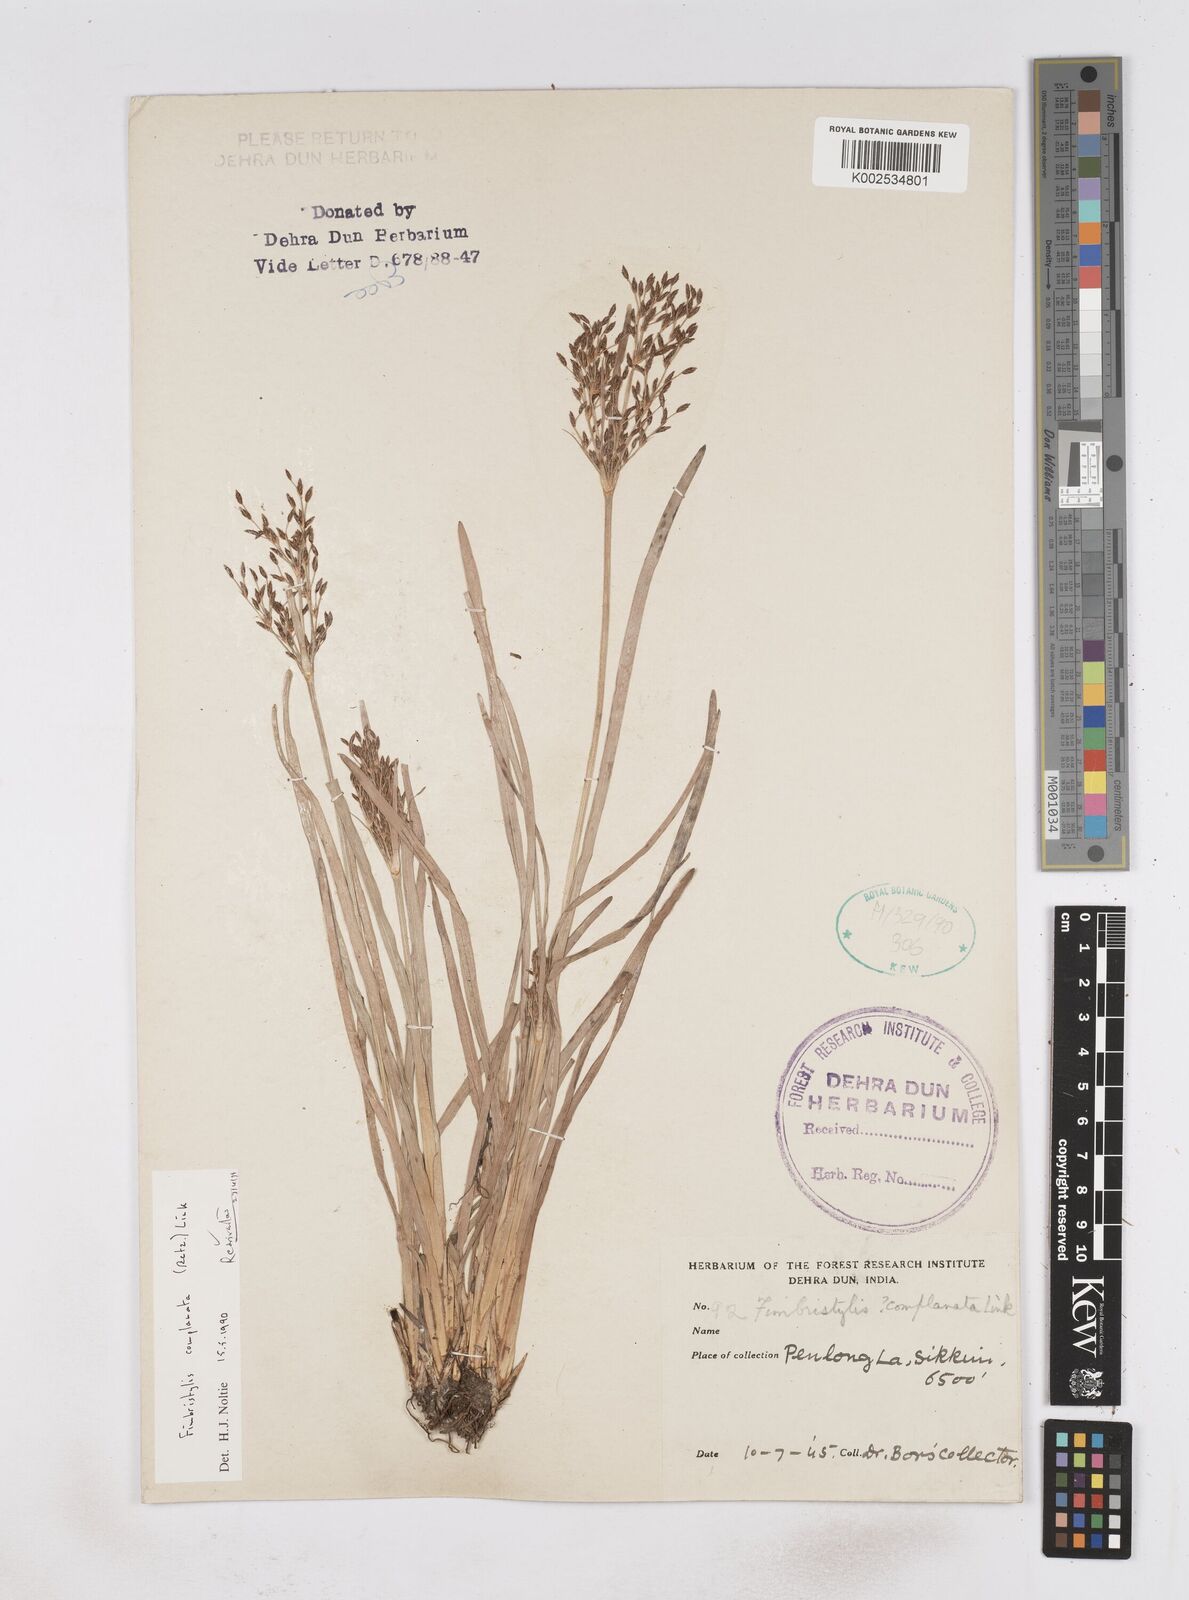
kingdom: Plantae
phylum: Tracheophyta
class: Liliopsida
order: Poales
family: Cyperaceae
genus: Fimbristylis
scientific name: Fimbristylis complanata
